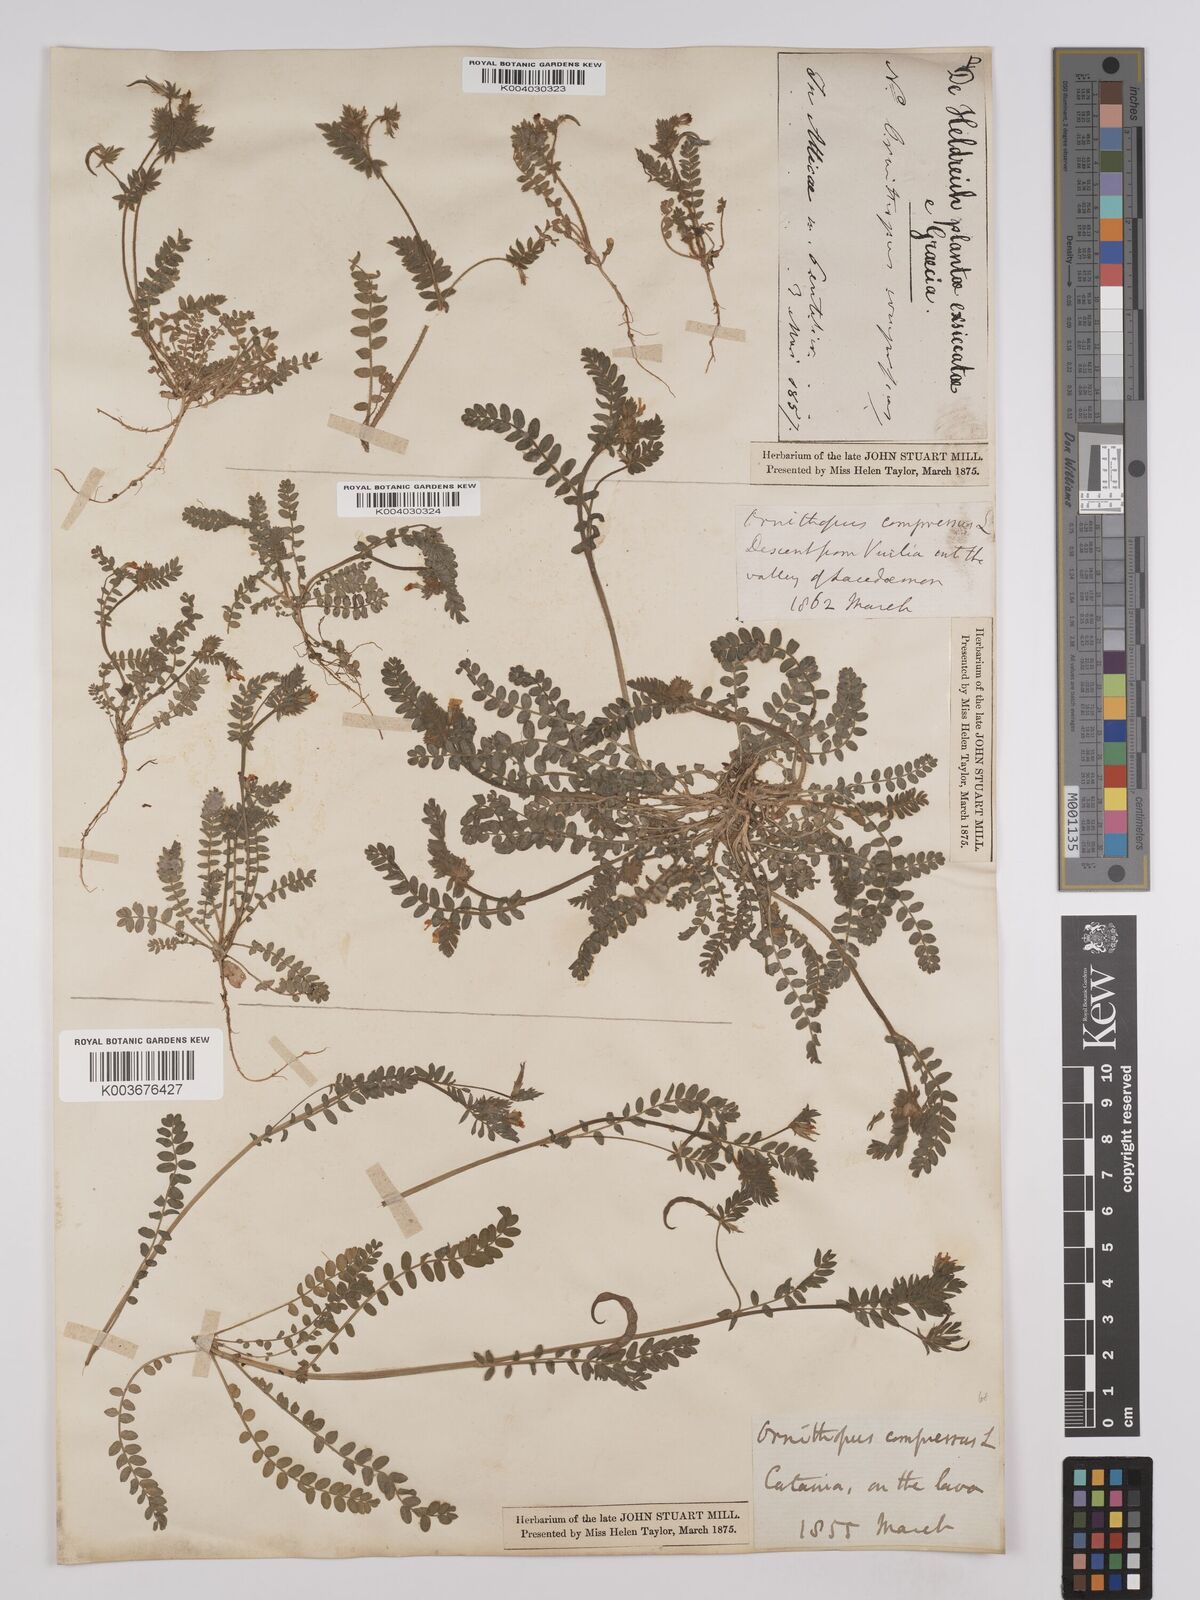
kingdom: Plantae
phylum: Tracheophyta
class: Magnoliopsida
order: Fabales
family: Fabaceae
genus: Ornithopus
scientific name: Ornithopus compressus
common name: Yellow serradella
